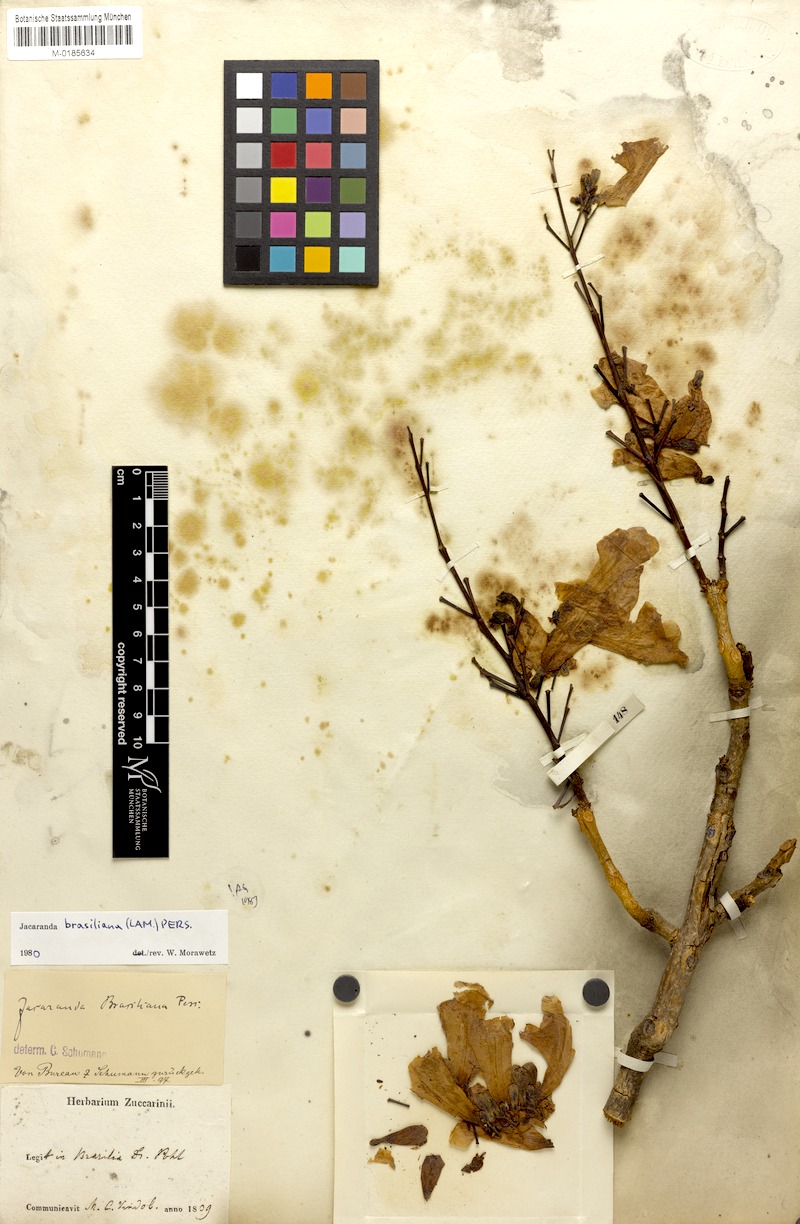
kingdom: Plantae
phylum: Tracheophyta
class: Magnoliopsida
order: Lamiales
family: Bignoniaceae
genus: Jacaranda
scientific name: Jacaranda brasiliana
